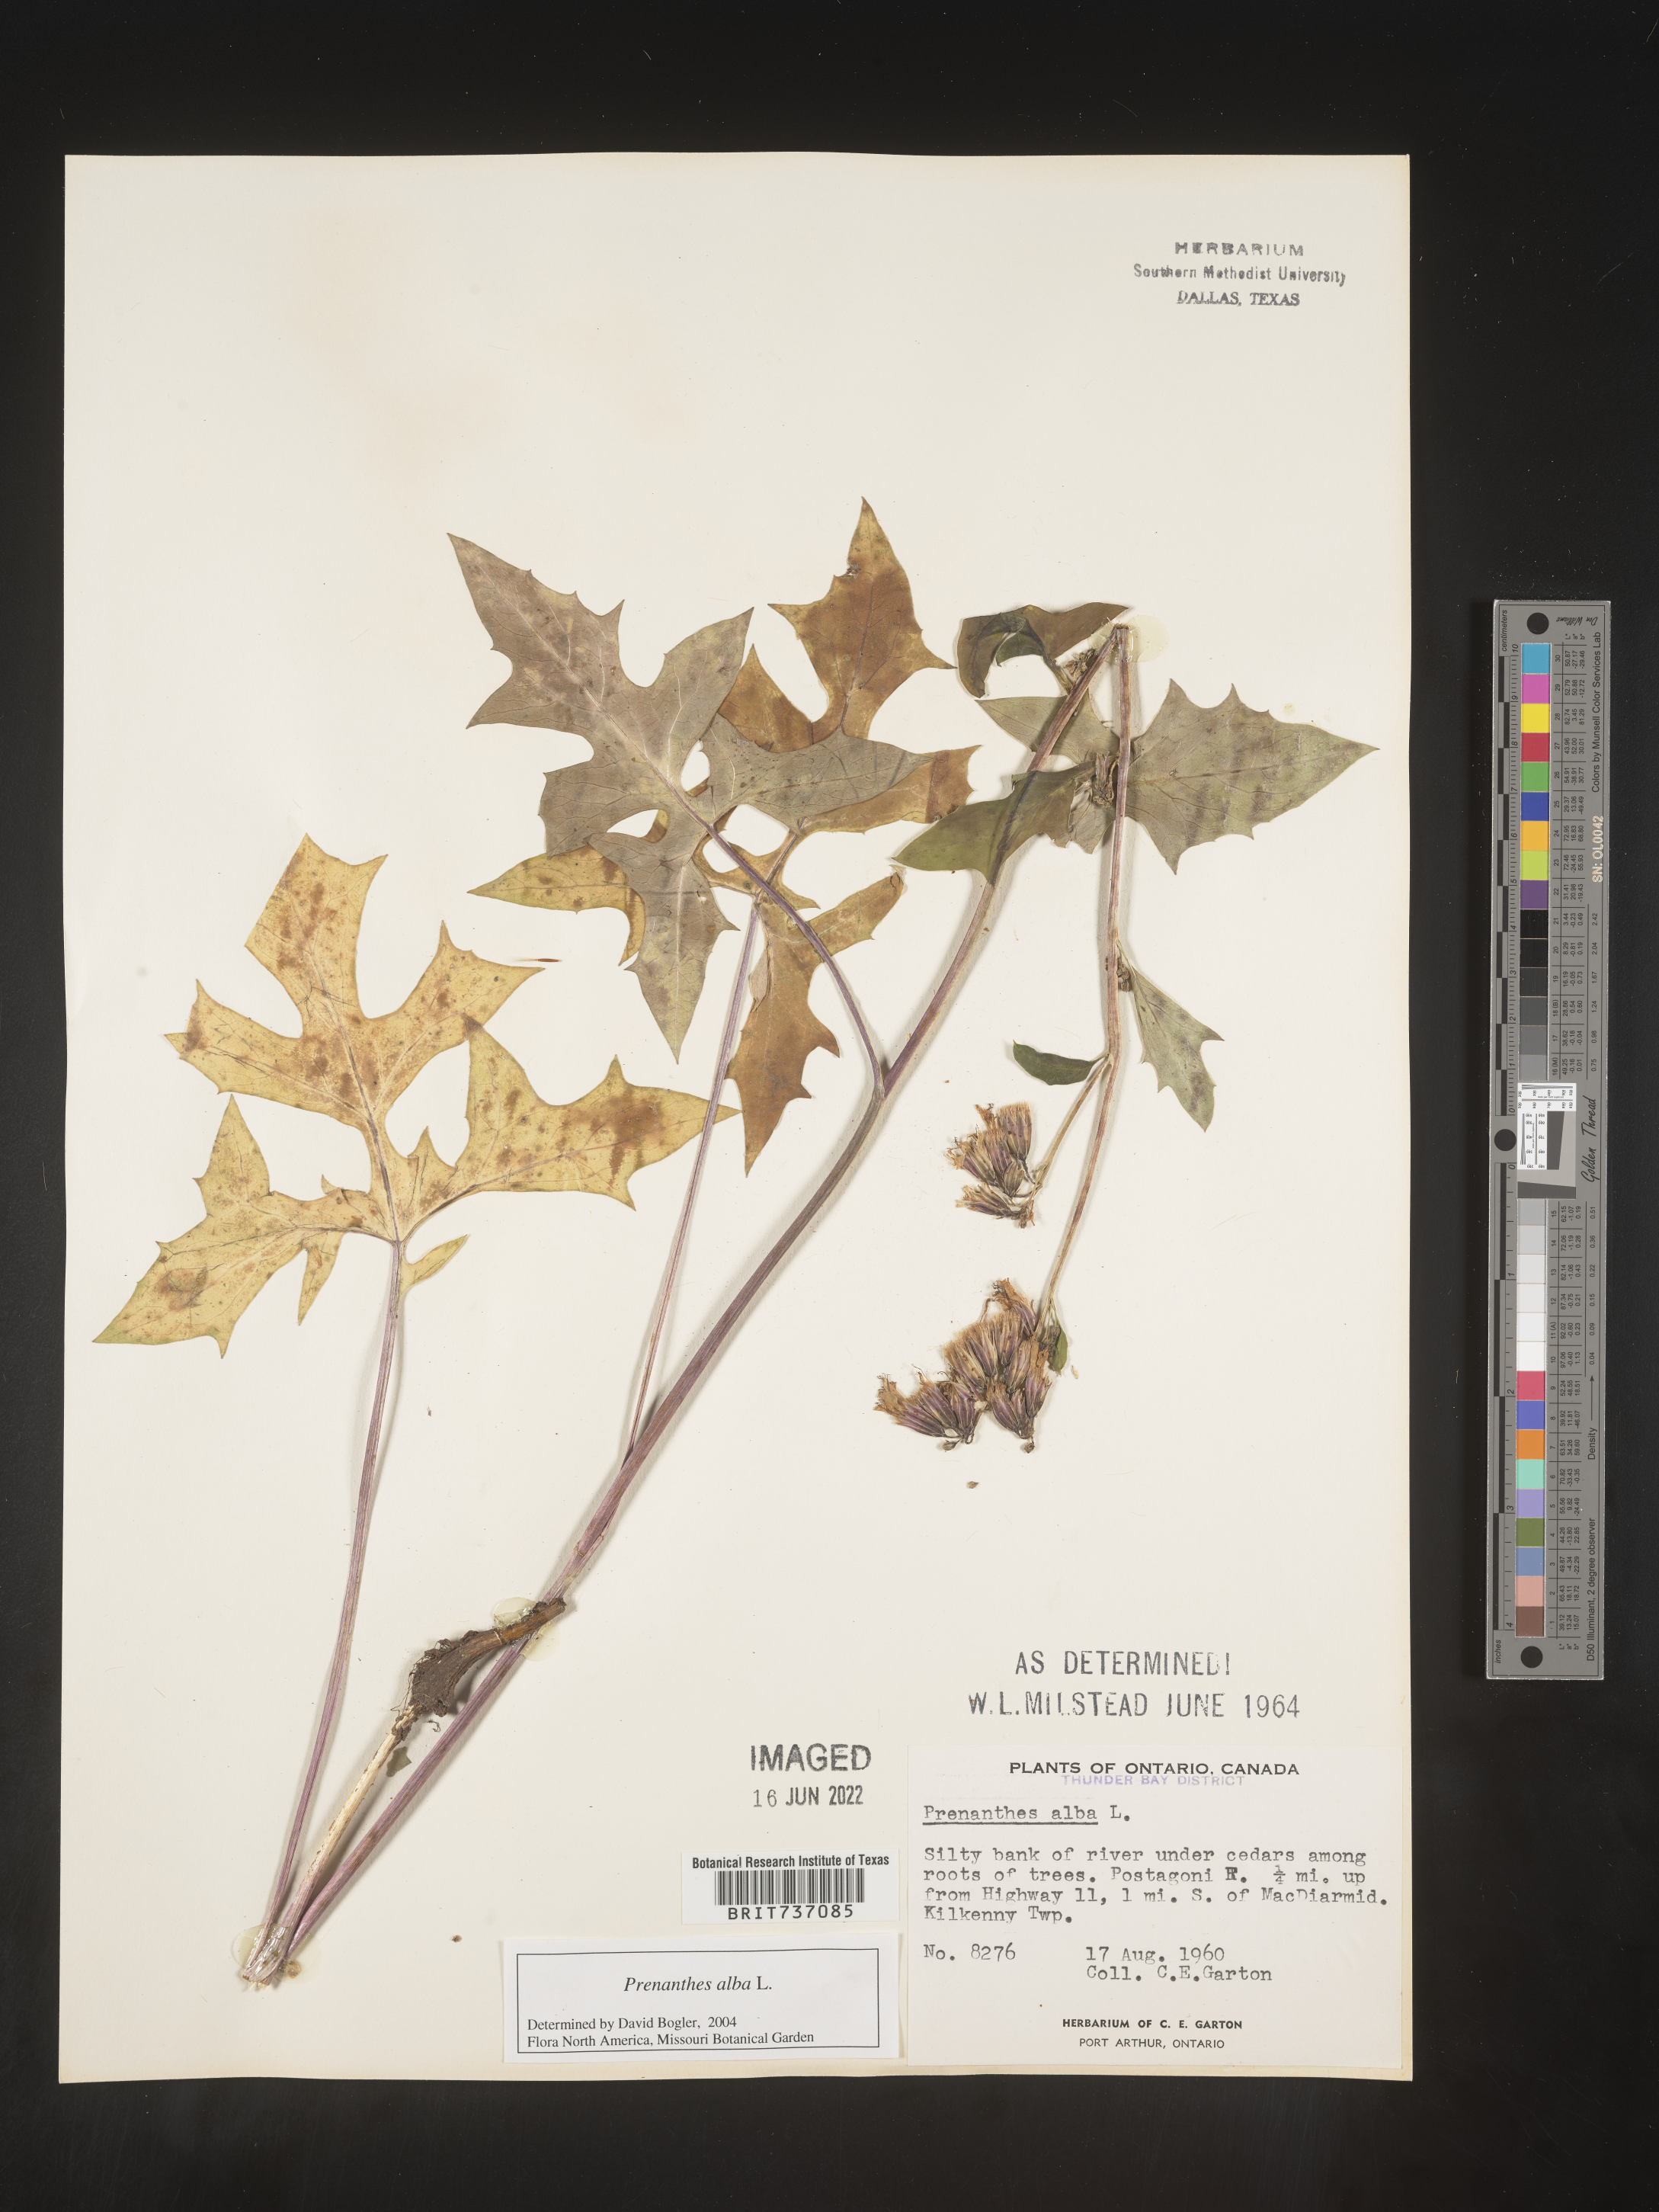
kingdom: Plantae
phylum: Tracheophyta
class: Magnoliopsida
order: Asterales
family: Asteraceae
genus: Nabalus
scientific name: Nabalus albus
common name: White rattlesnakeroot
